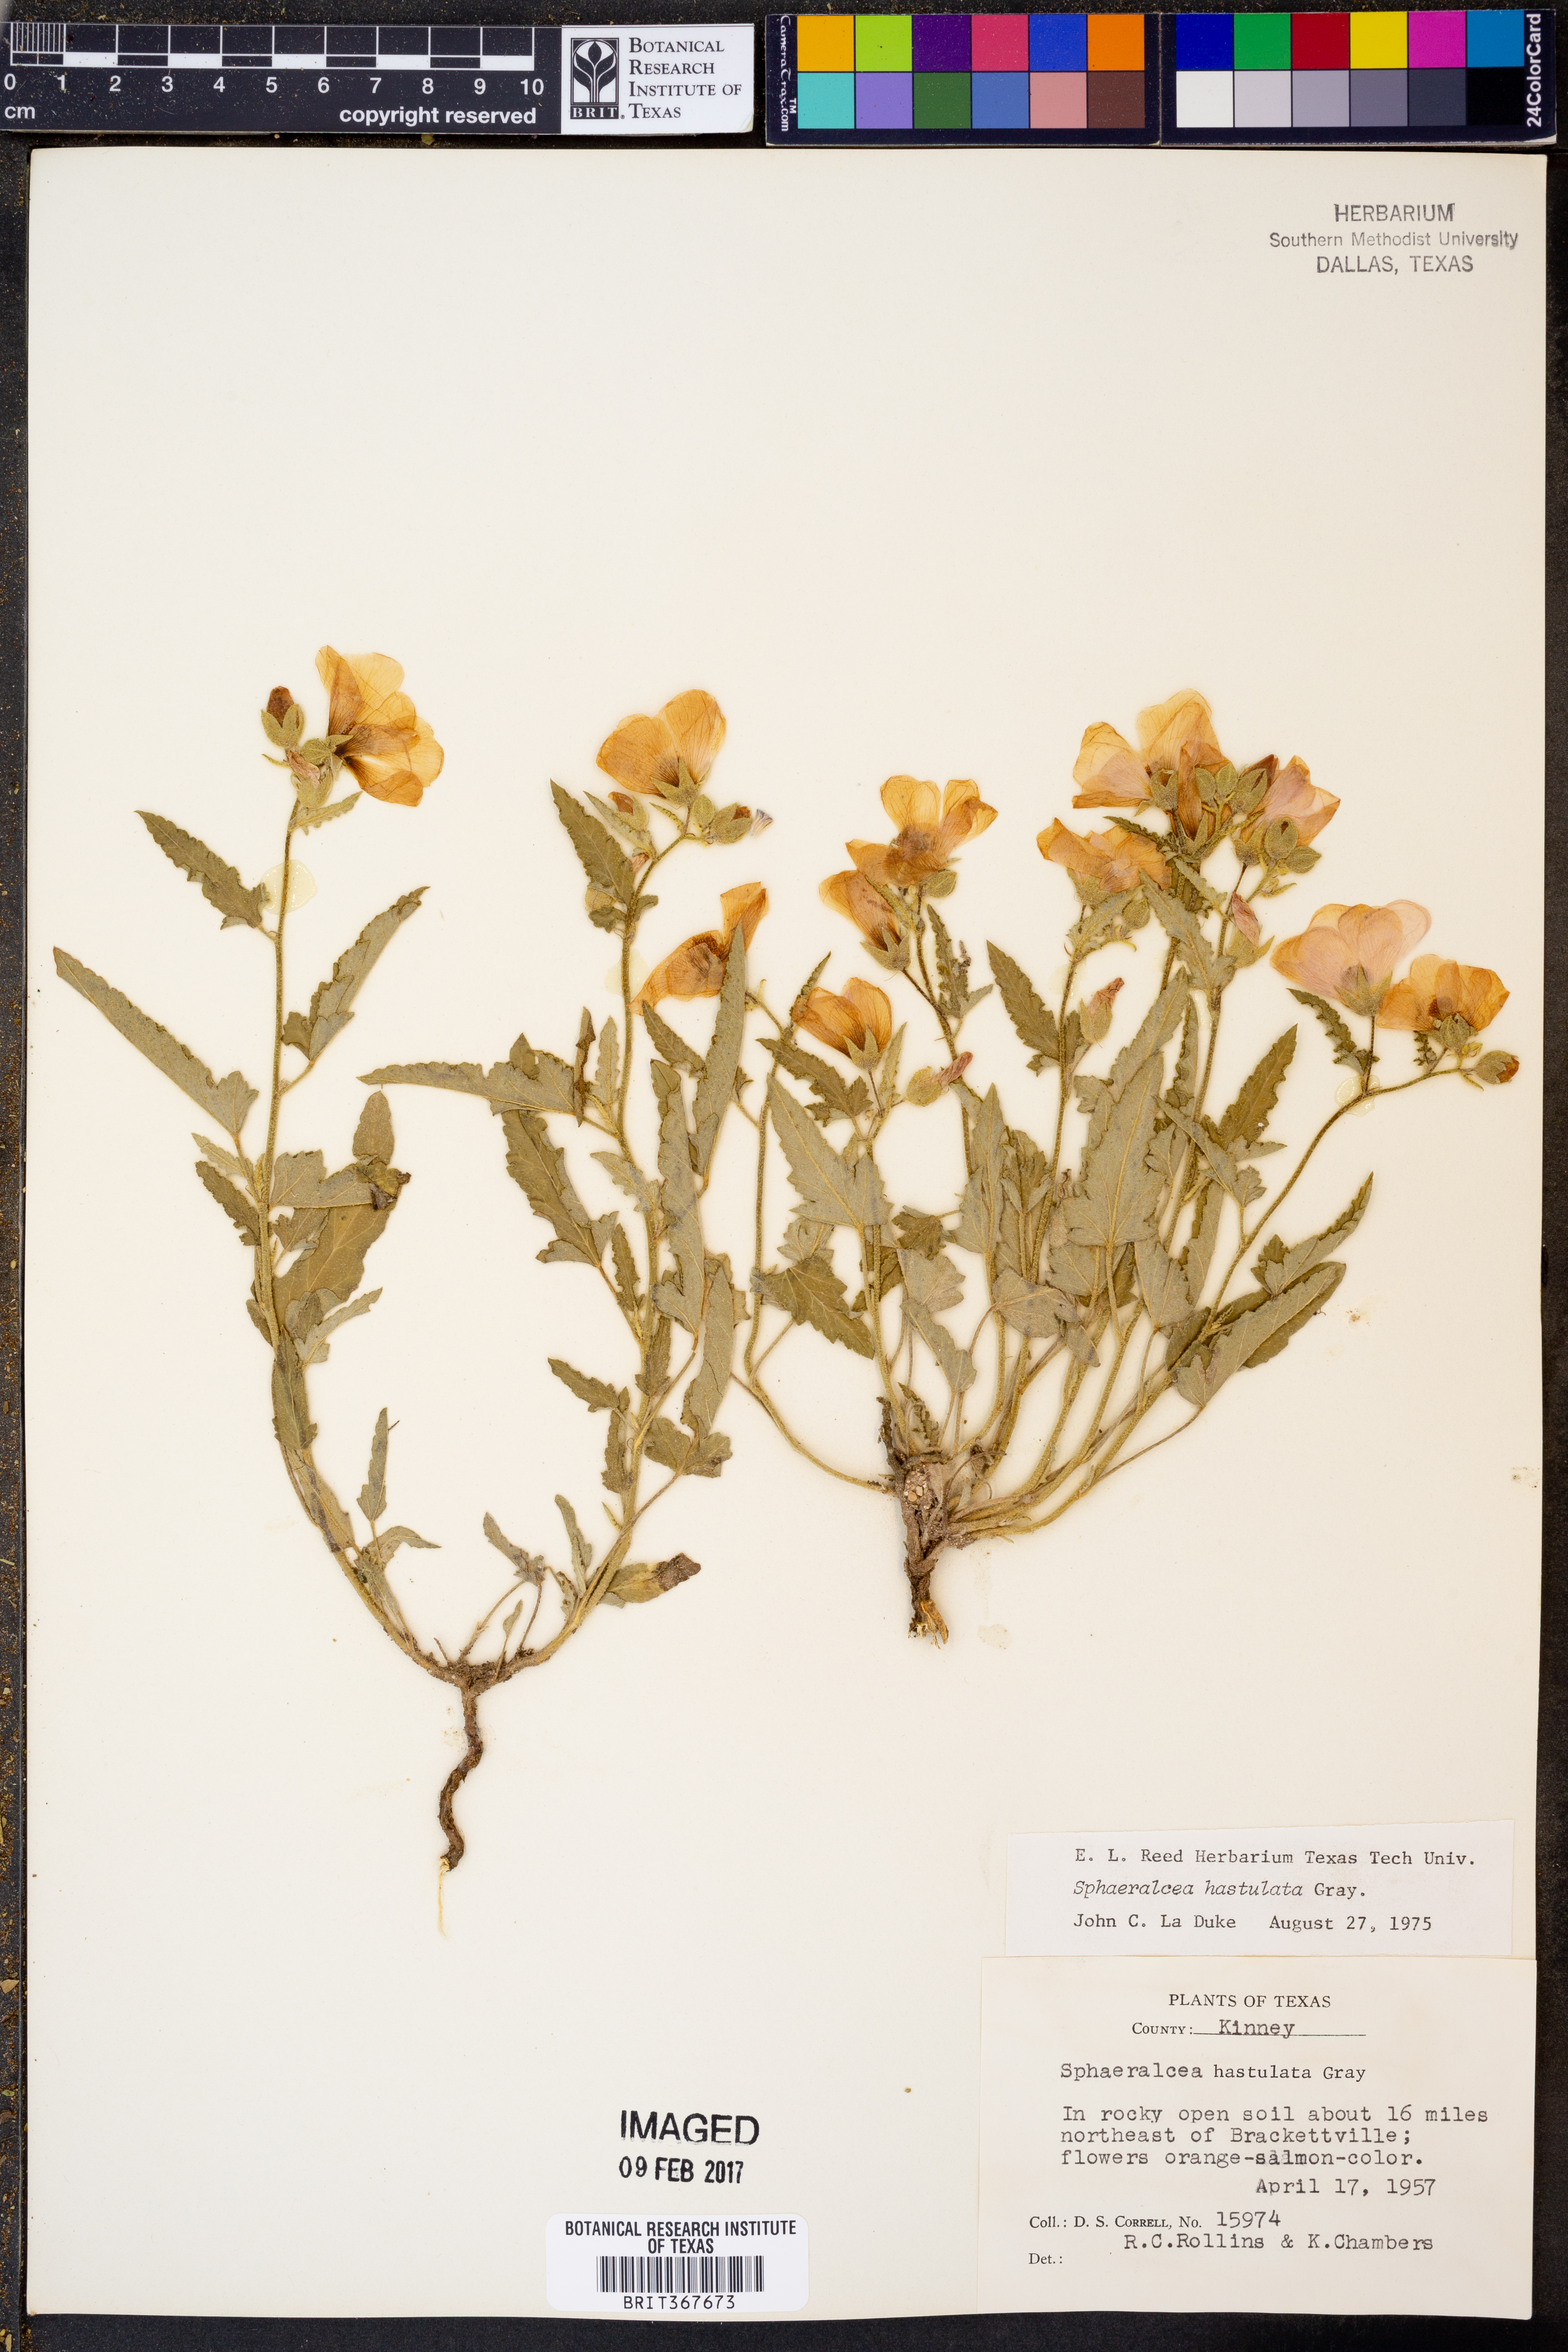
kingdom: Plantae
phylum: Tracheophyta
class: Magnoliopsida
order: Malvales
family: Malvaceae
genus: Sphaeralcea
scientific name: Sphaeralcea hastulata
